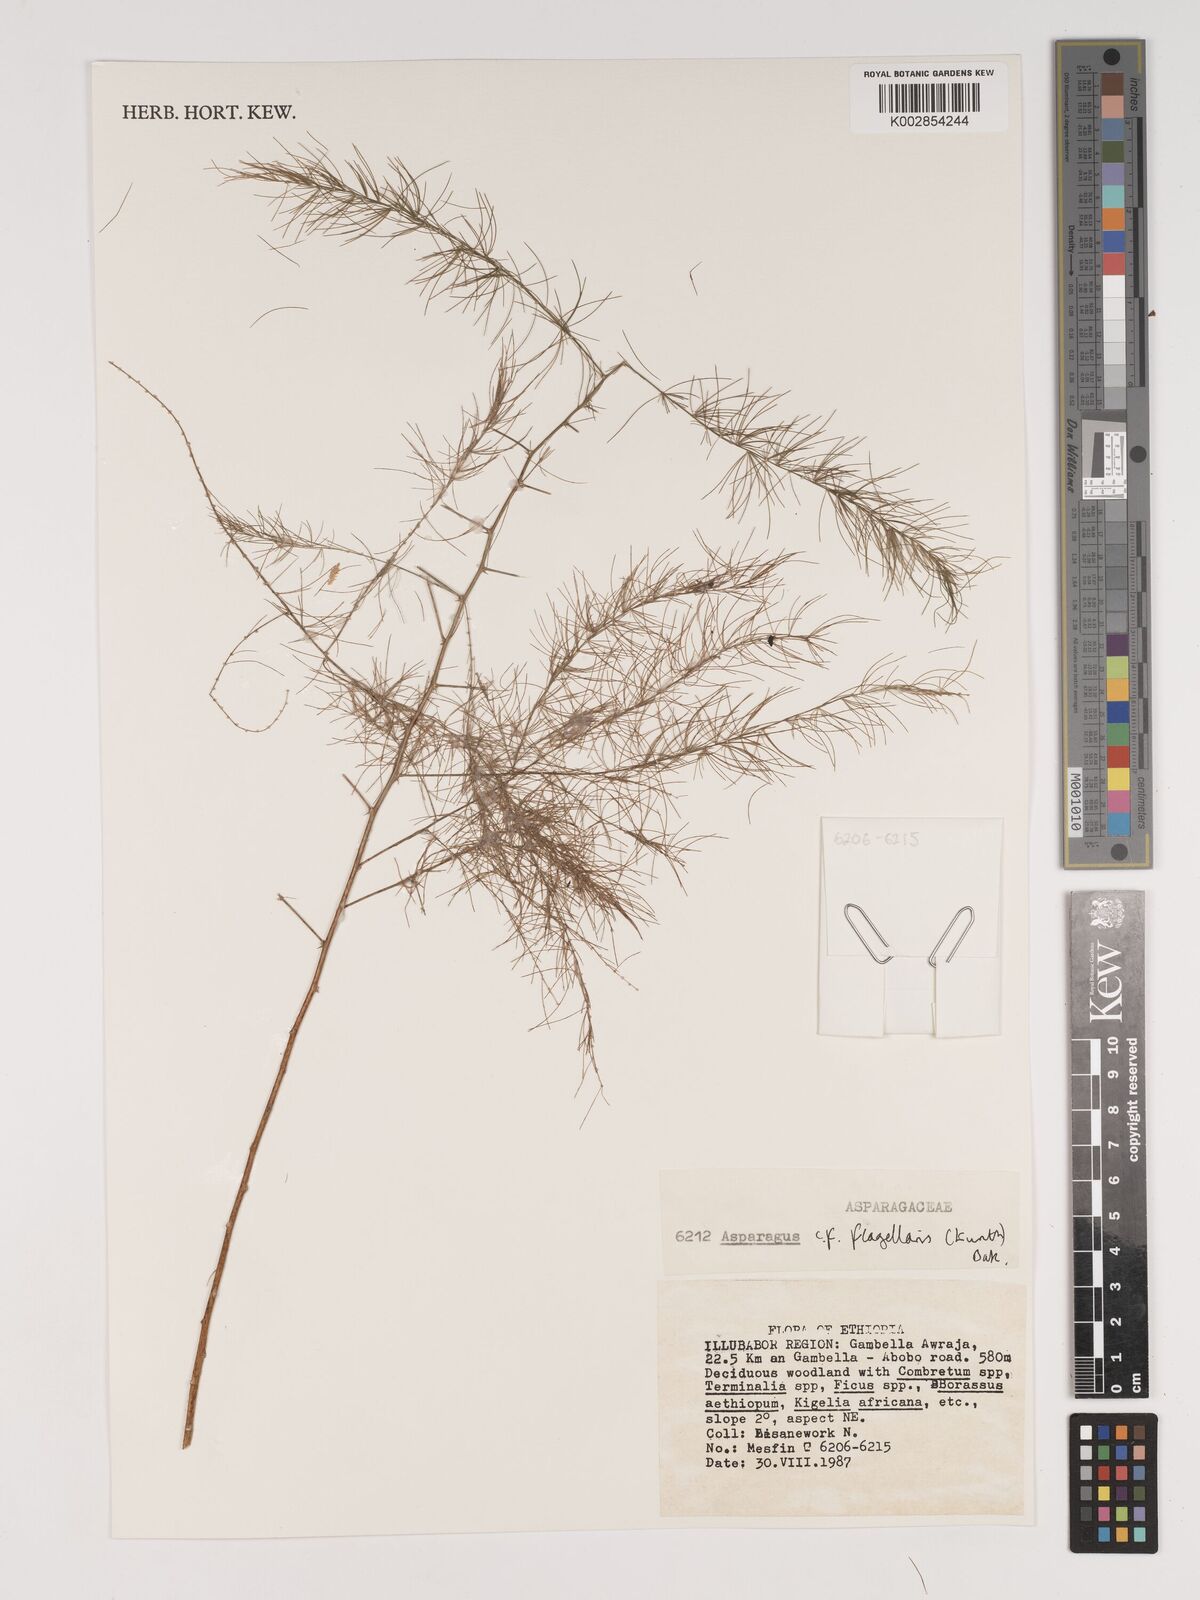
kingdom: Plantae
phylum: Tracheophyta
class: Liliopsida
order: Asparagales
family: Asparagaceae
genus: Asparagus
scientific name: Asparagus flagellaris
